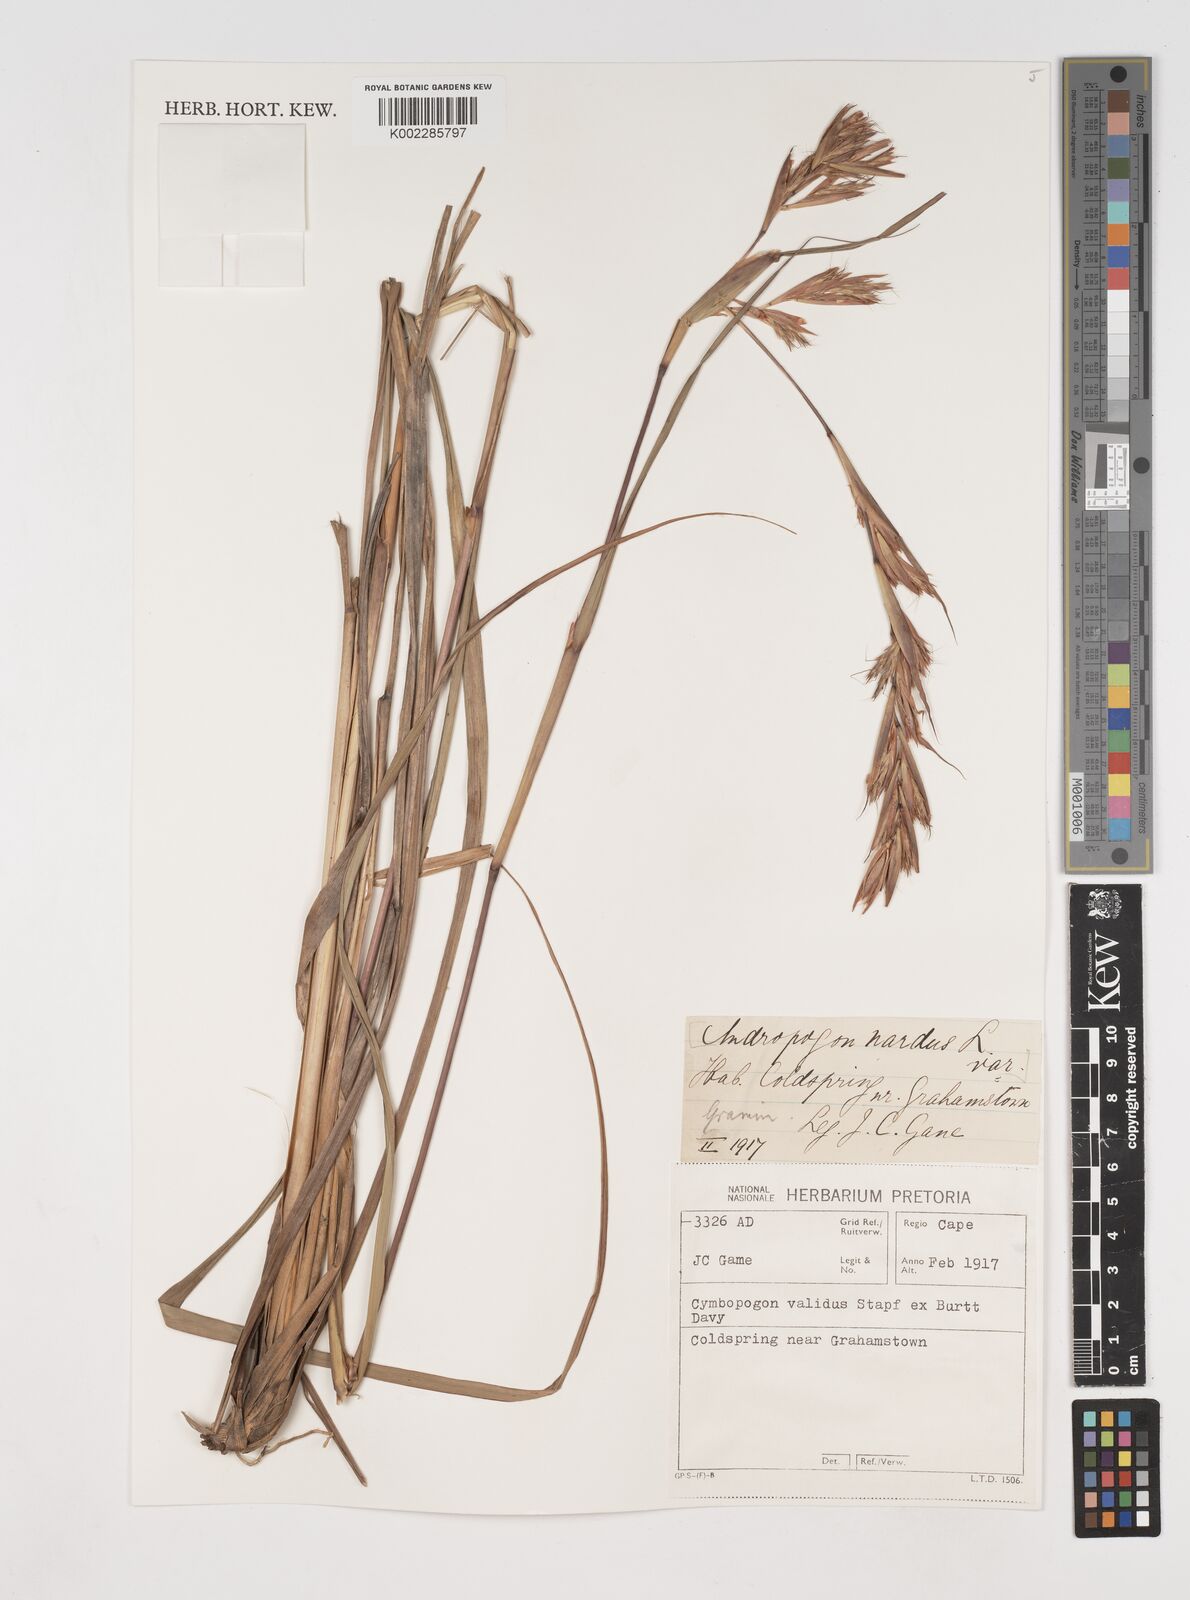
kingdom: Plantae
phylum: Tracheophyta
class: Liliopsida
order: Poales
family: Poaceae
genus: Cymbopogon
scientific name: Cymbopogon nardus
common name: Giant turpentine grass
